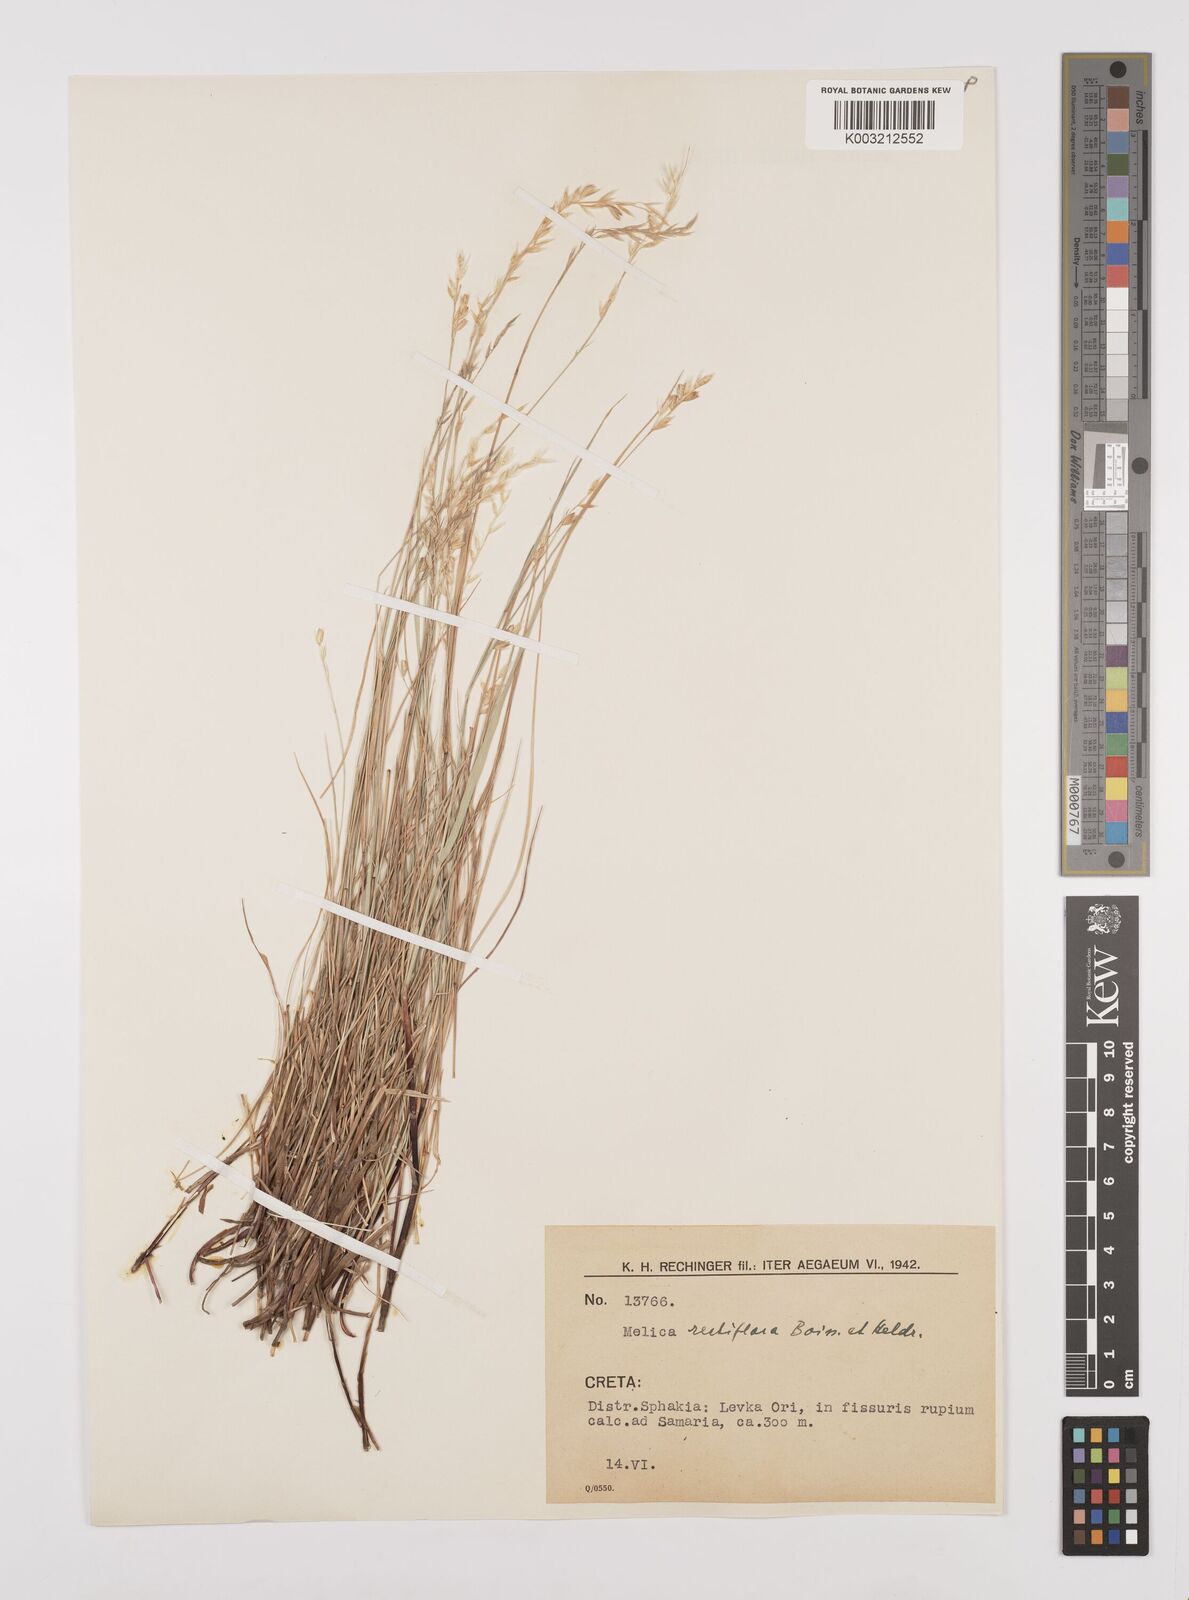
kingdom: Plantae
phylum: Tracheophyta
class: Liliopsida
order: Poales
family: Poaceae
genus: Melica
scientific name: Melica rectiflora
